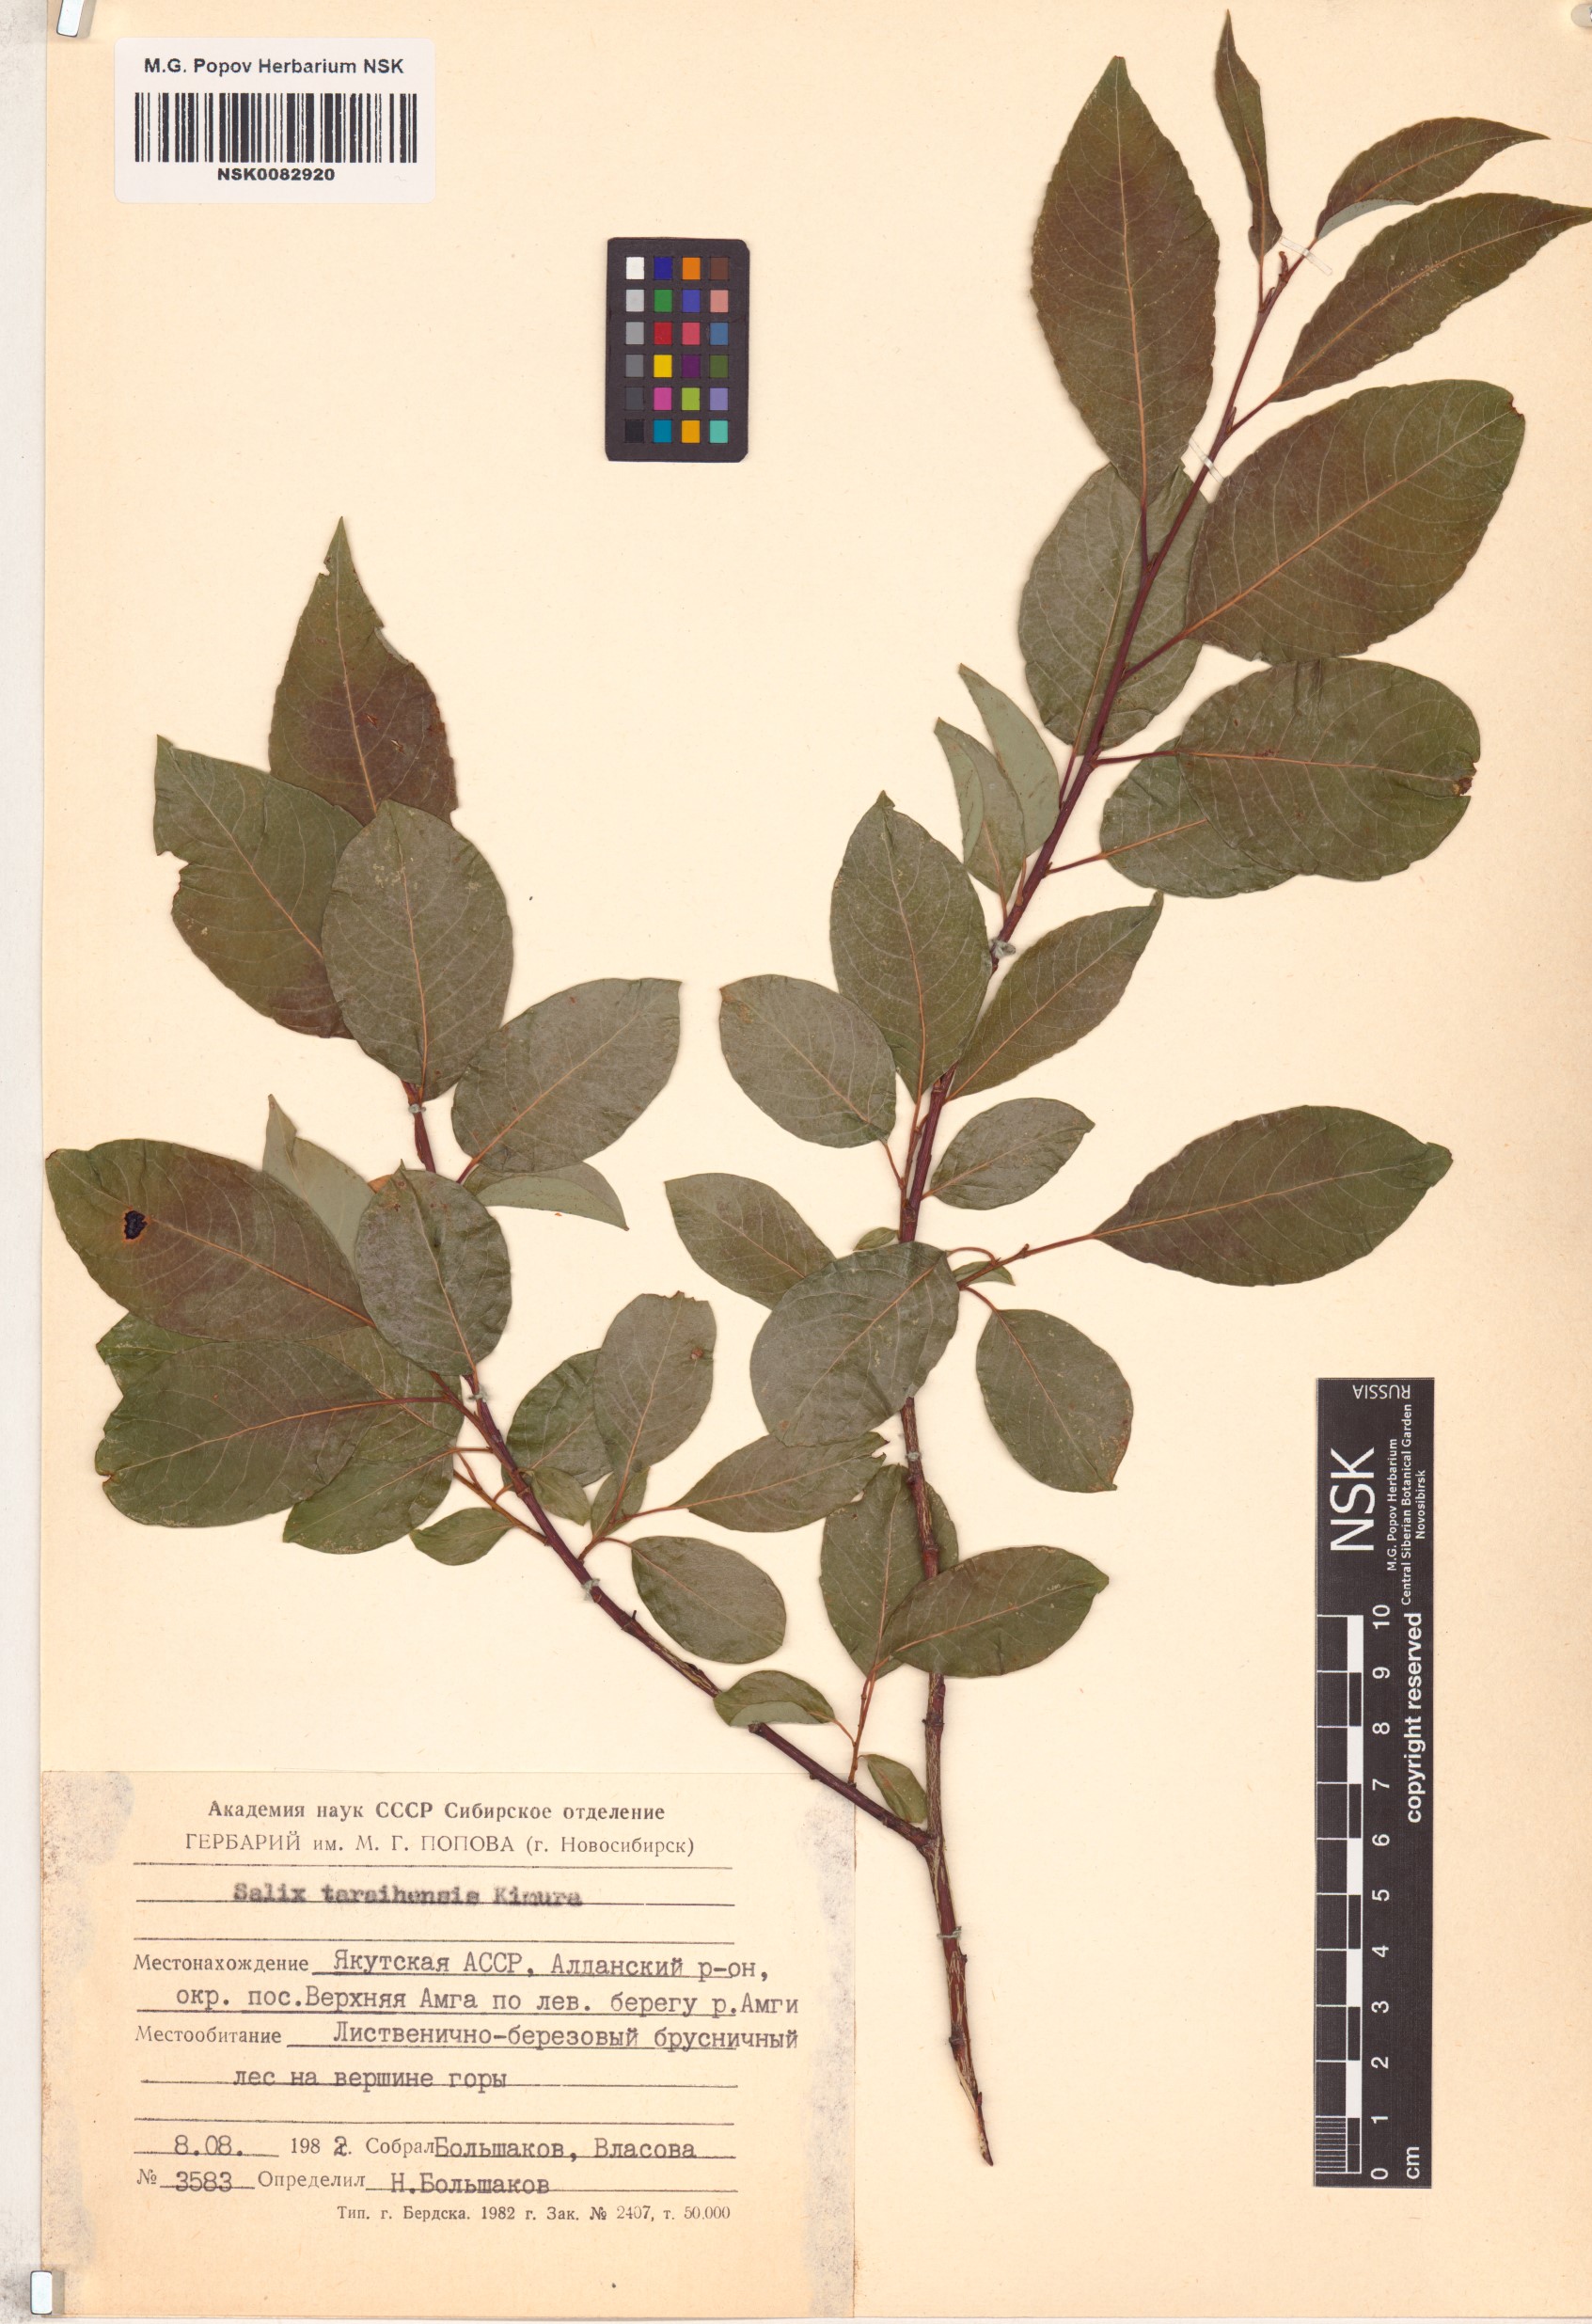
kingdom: Plantae
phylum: Tracheophyta
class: Magnoliopsida
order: Malpighiales
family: Salicaceae
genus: Salix
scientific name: Salix taraikensis
